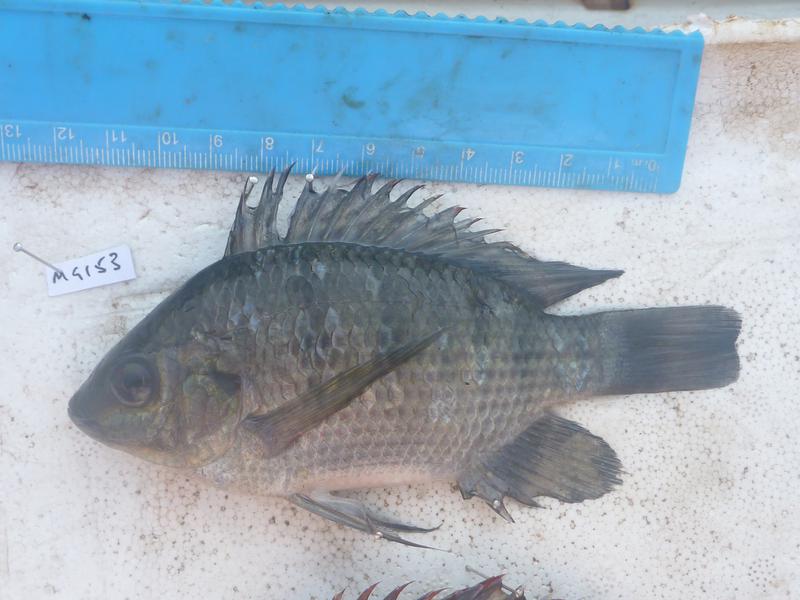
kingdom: Animalia
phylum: Chordata
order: Perciformes
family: Cichlidae
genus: Oreochromis
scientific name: Oreochromis upembae
